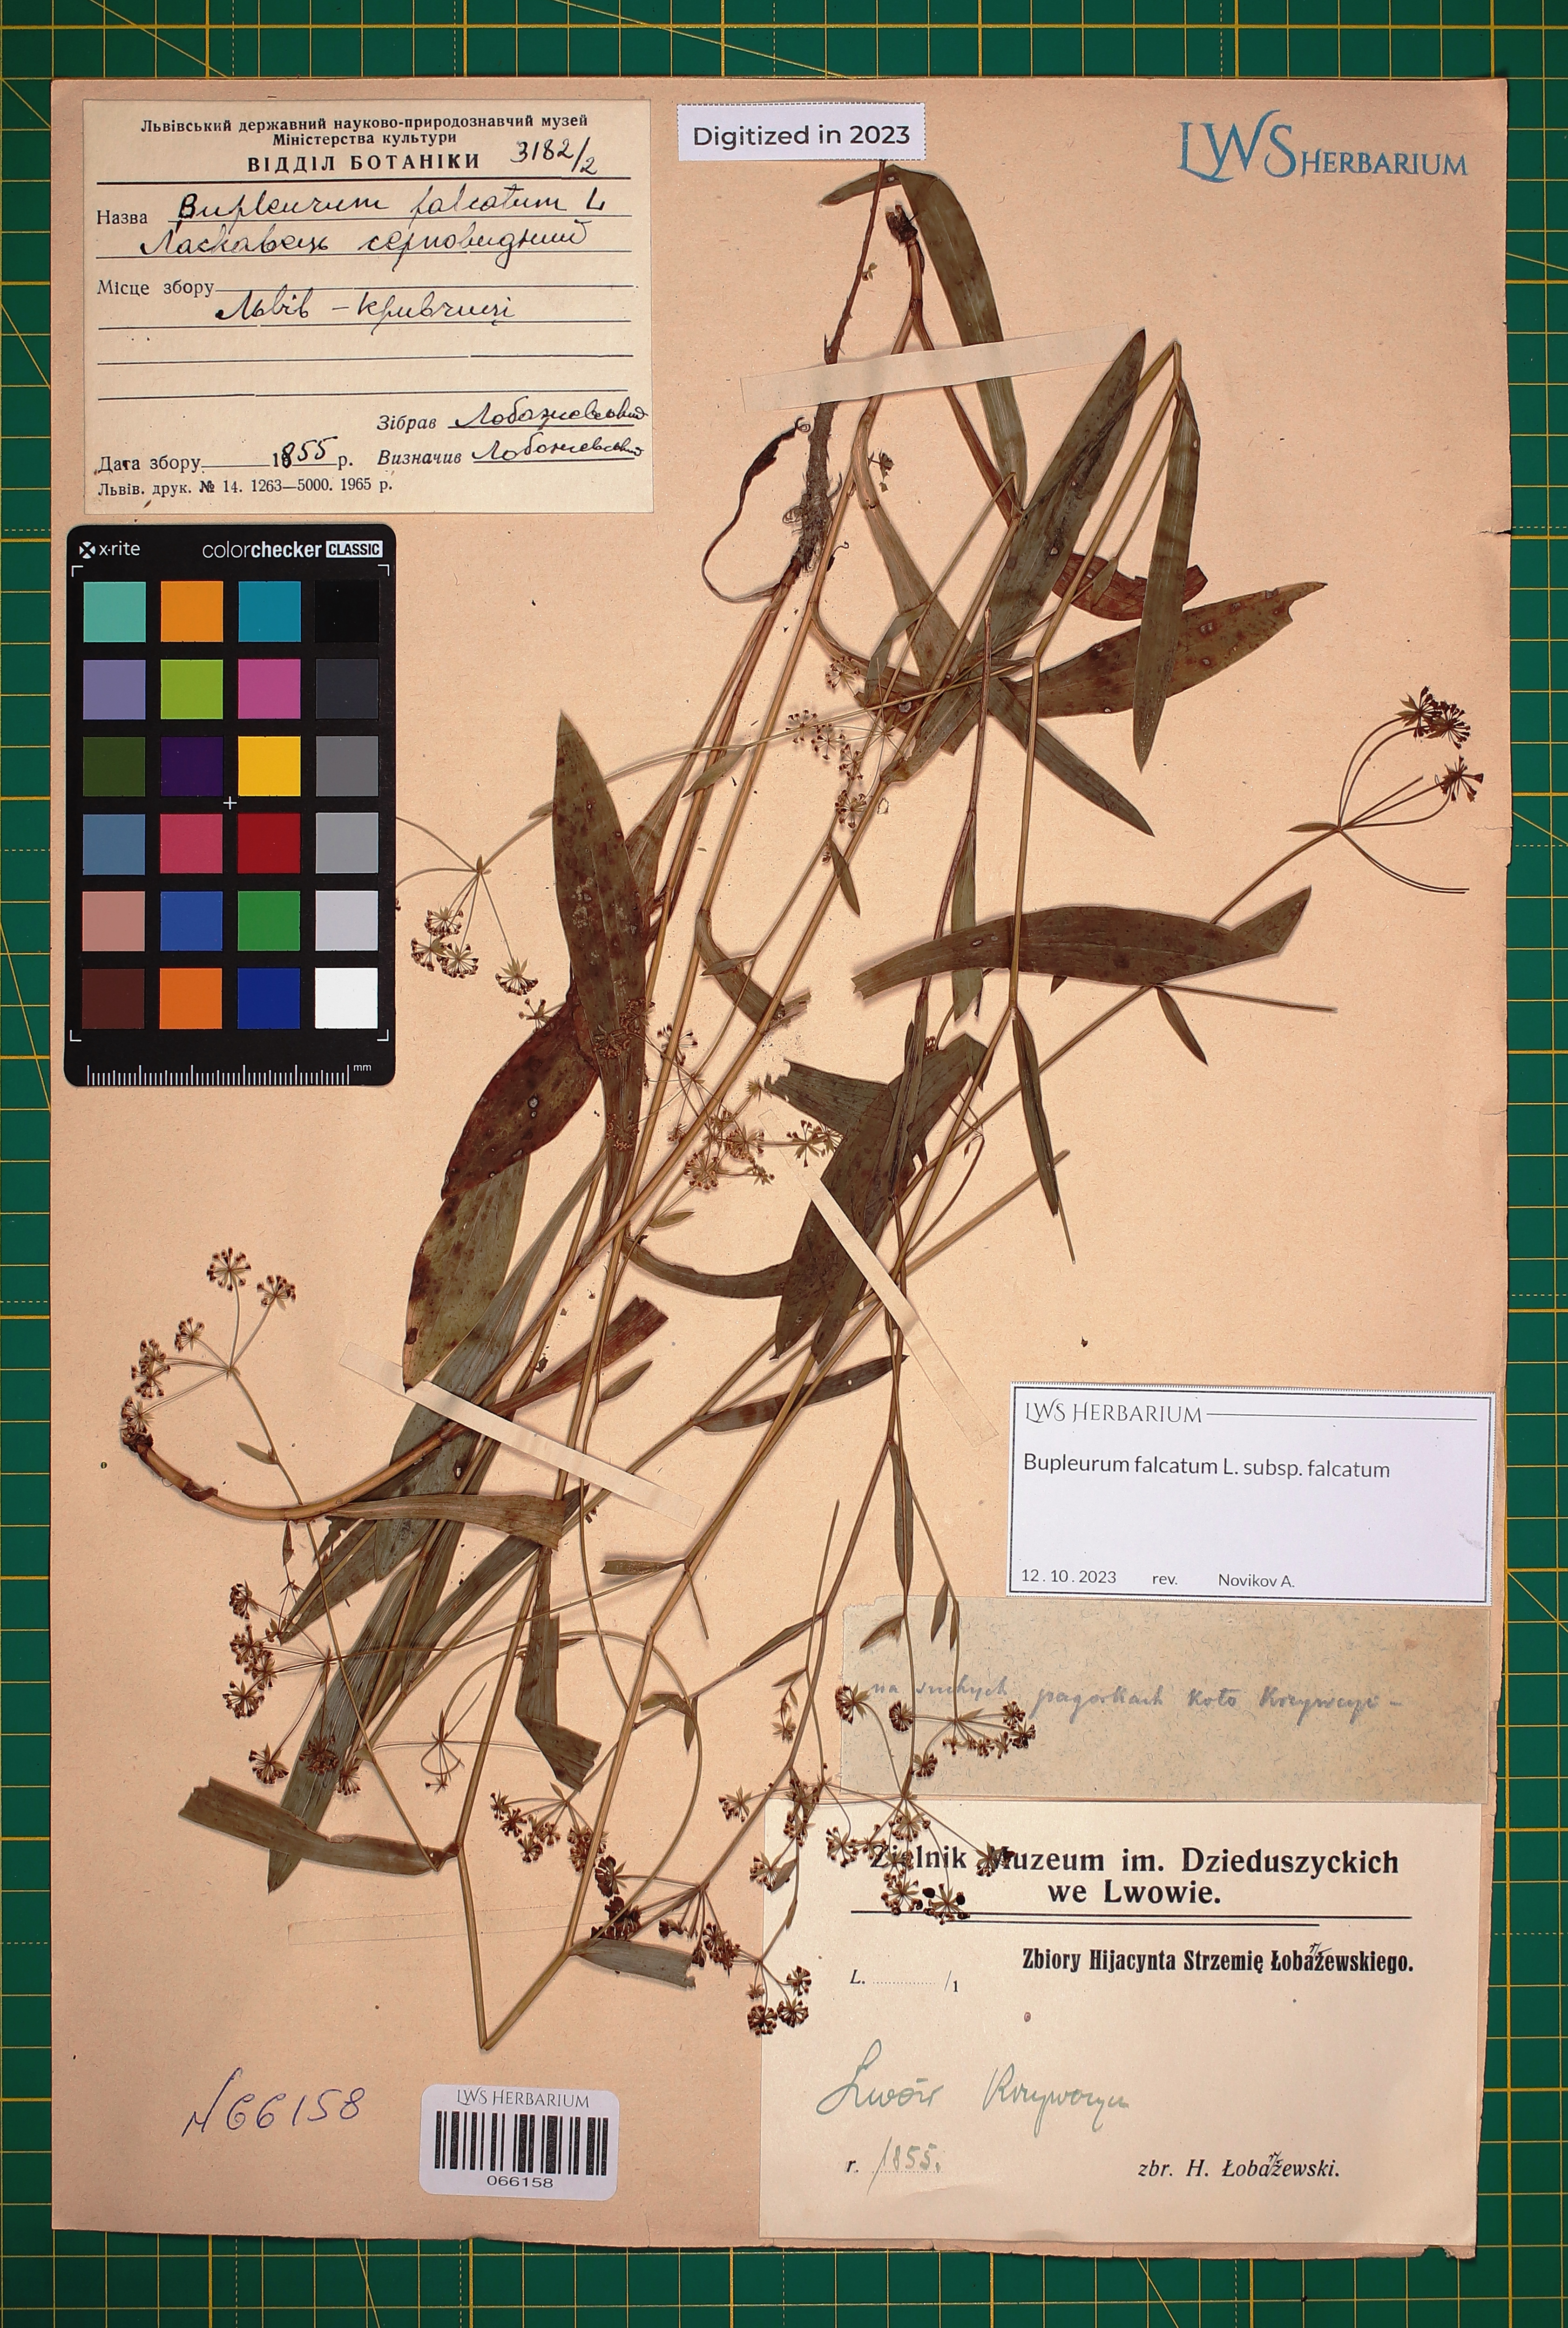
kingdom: Plantae
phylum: Tracheophyta
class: Magnoliopsida
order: Apiales
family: Apiaceae
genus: Bupleurum
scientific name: Bupleurum falcatum
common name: Sickle-leaved hare's-ear
